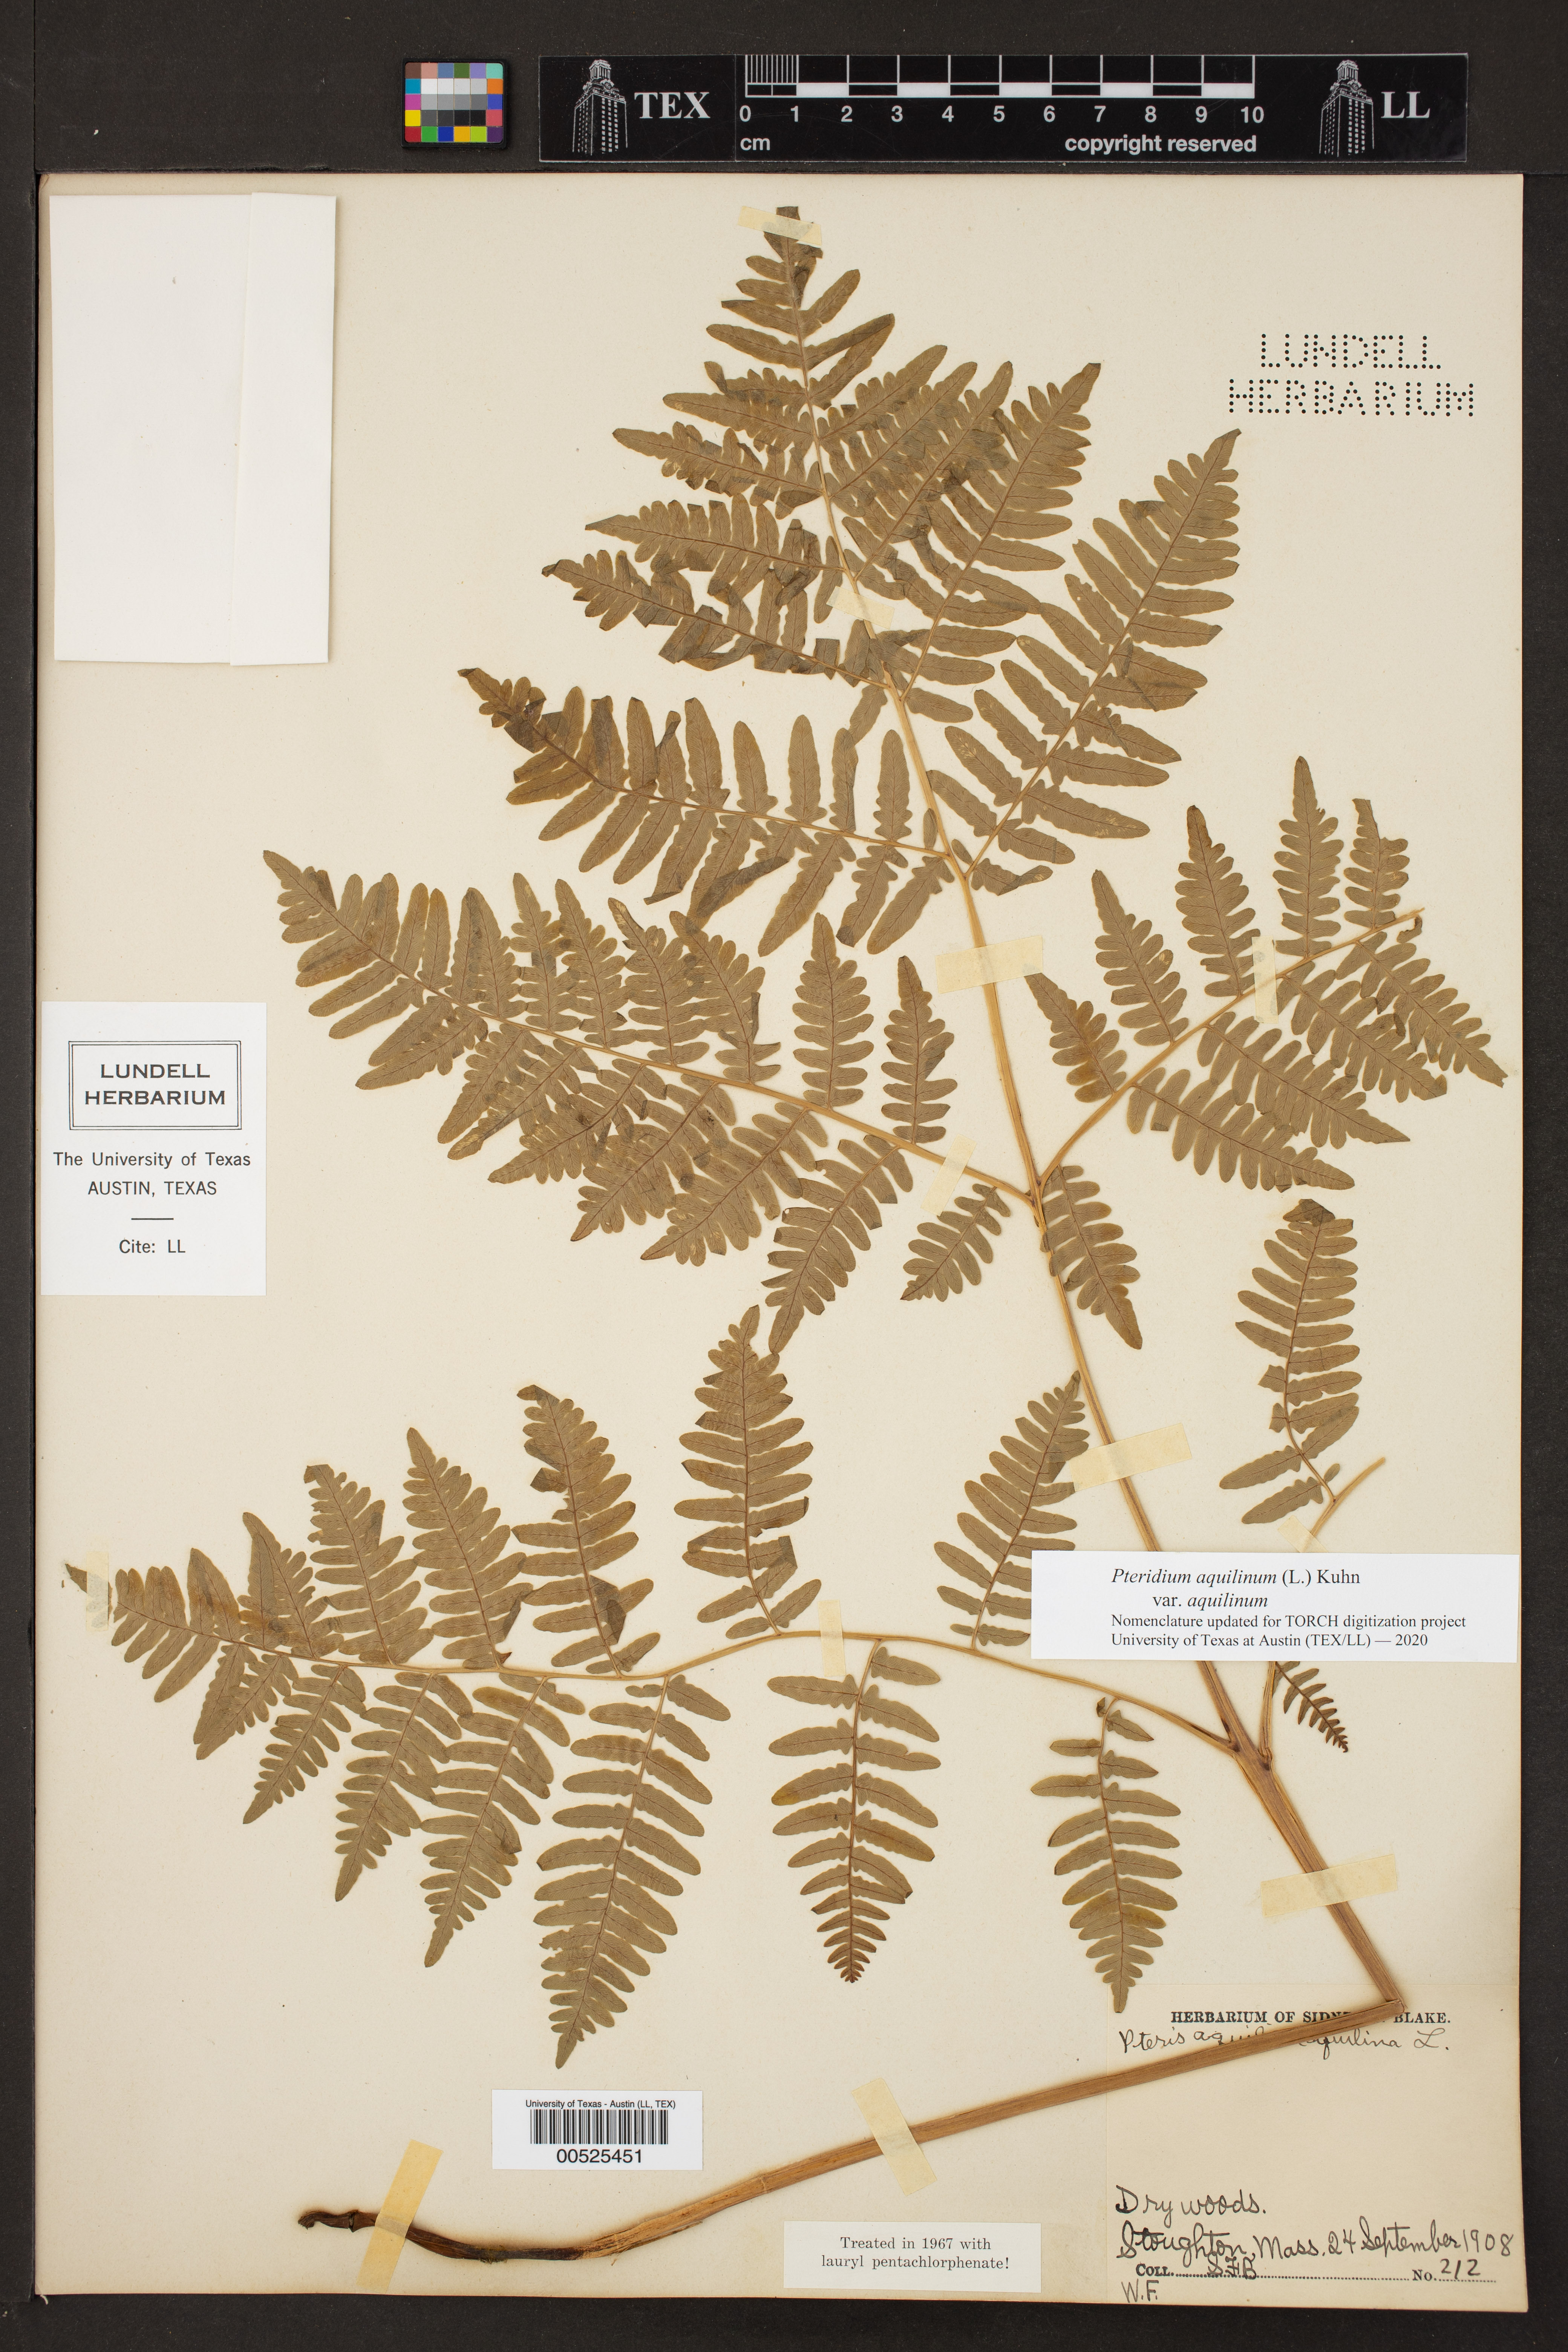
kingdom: Plantae
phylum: Tracheophyta
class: Polypodiopsida
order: Polypodiales
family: Dennstaedtiaceae
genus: Pteridium
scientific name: Pteridium aquilinum
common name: Bracken
